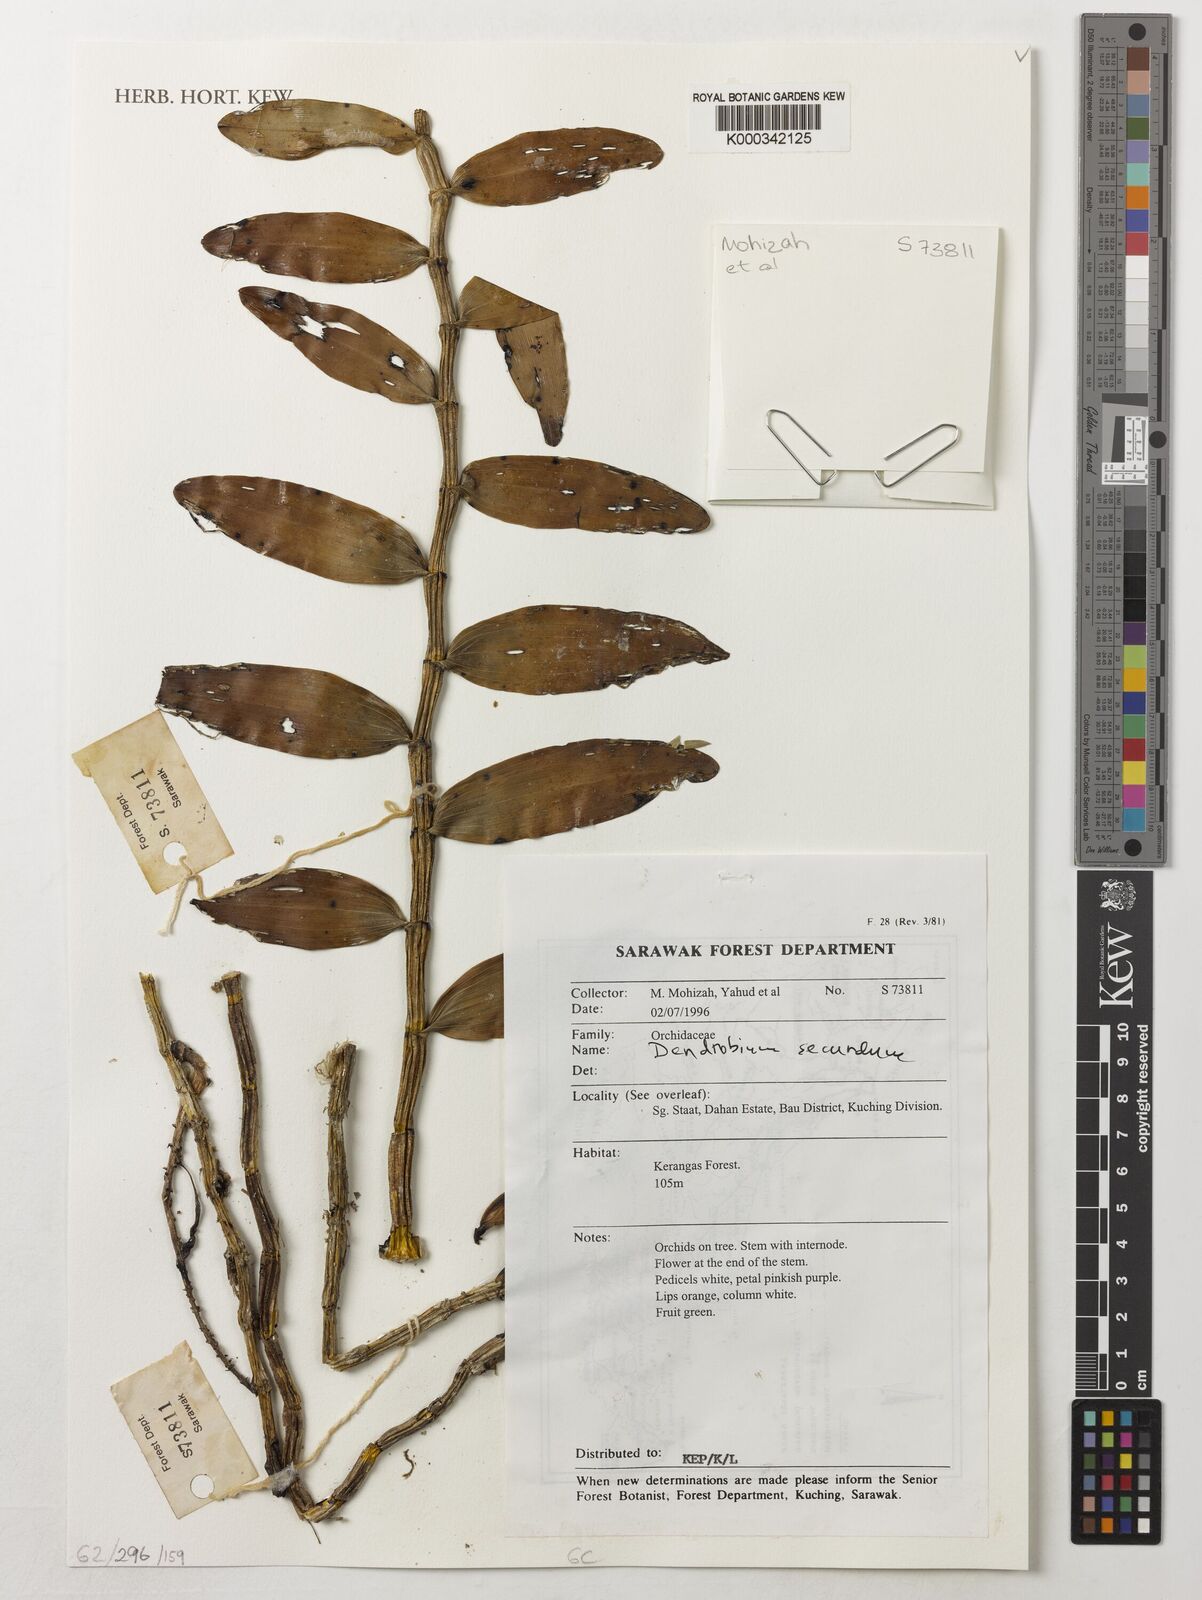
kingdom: Plantae
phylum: Tracheophyta
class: Liliopsida
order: Asparagales
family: Orchidaceae
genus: Dendrobium
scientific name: Dendrobium secundum
